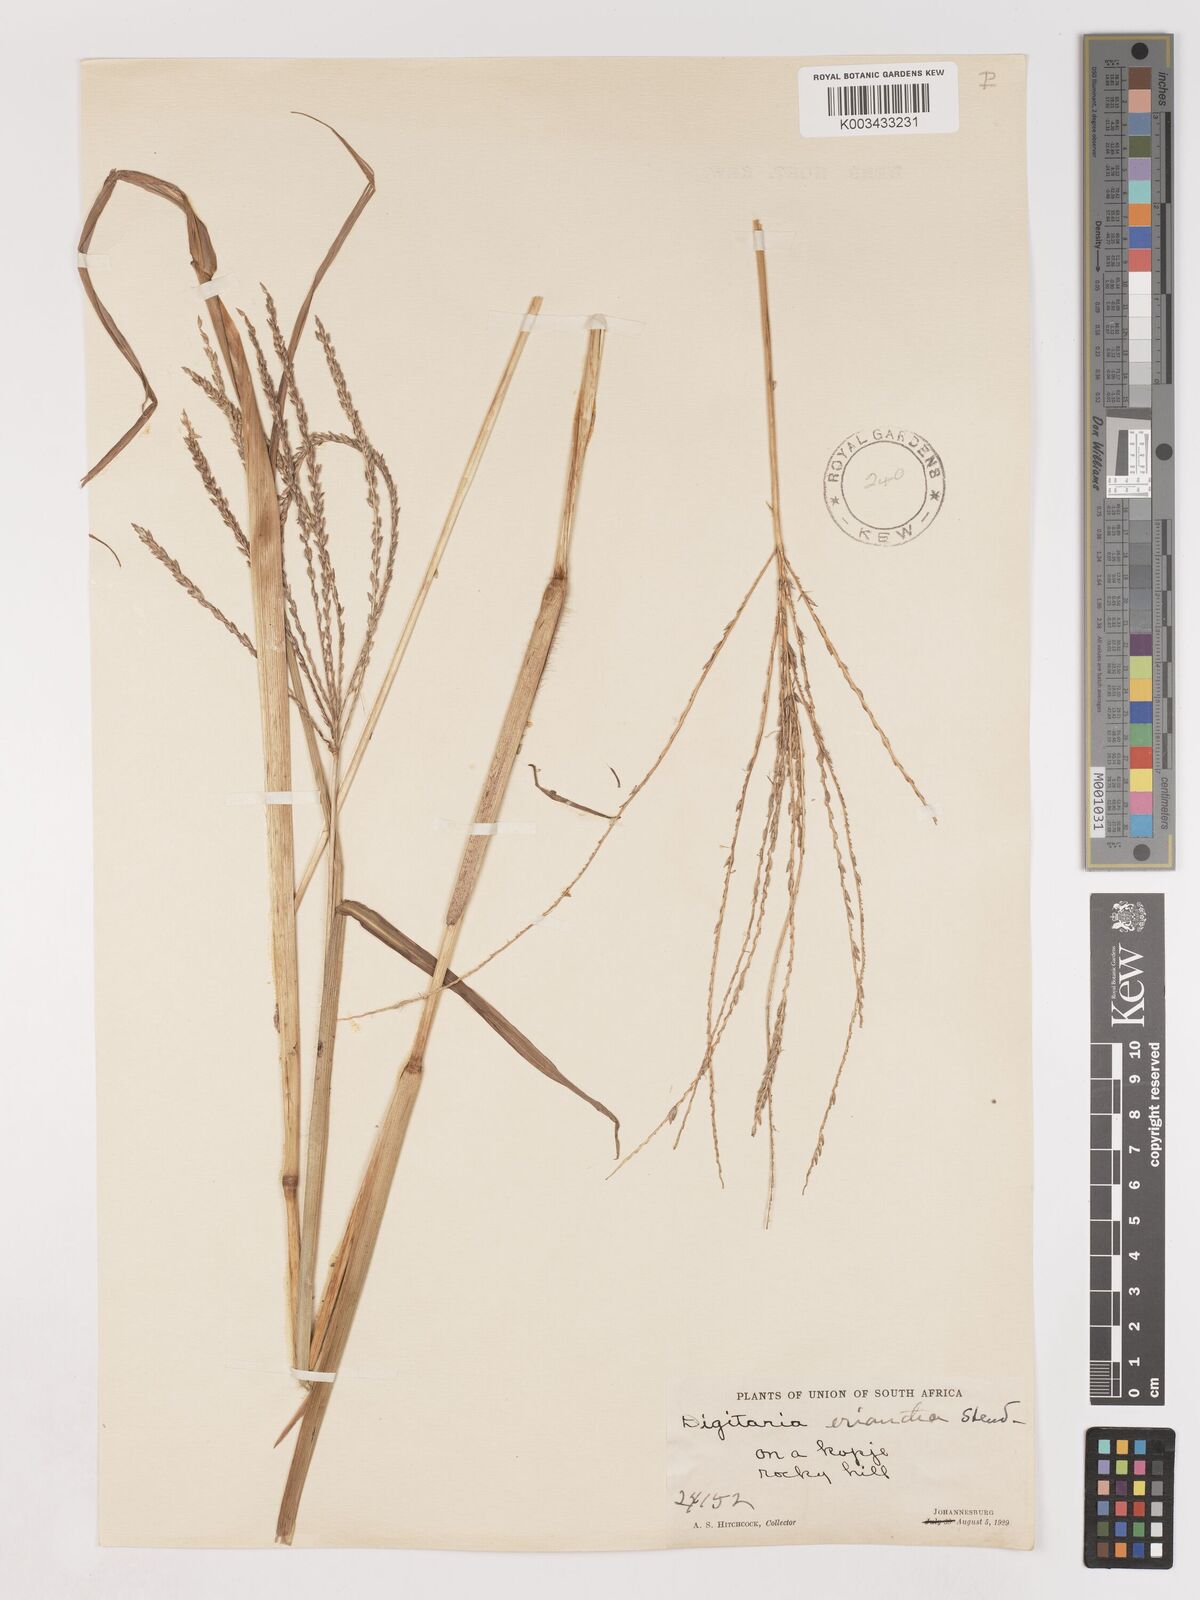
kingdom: Plantae
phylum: Tracheophyta
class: Liliopsida
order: Poales
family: Poaceae
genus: Digitaria
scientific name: Digitaria eriantha
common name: Digitgrass
